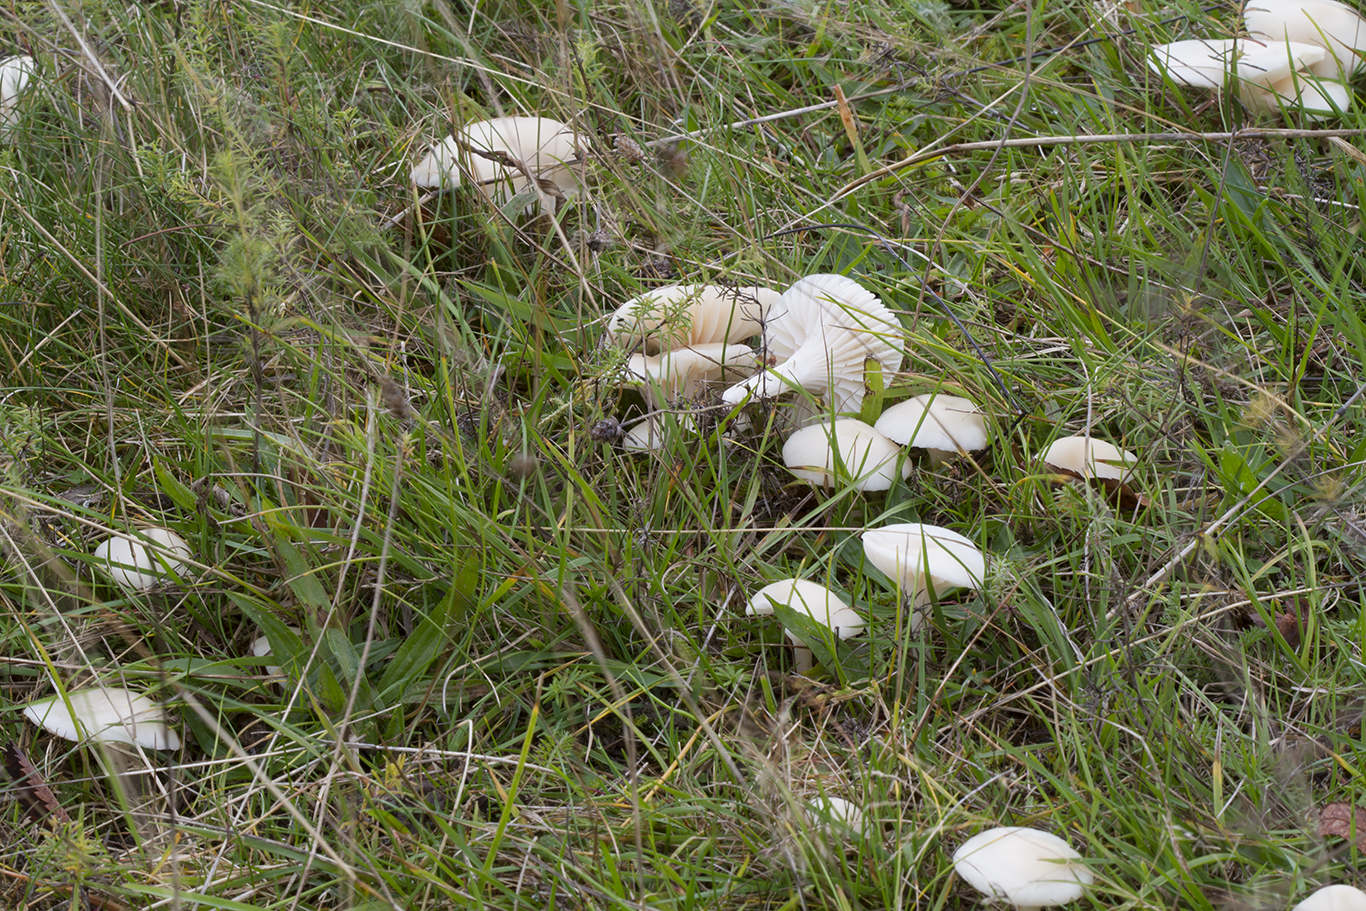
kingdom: Fungi
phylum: Basidiomycota
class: Agaricomycetes
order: Agaricales
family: Hygrophoraceae
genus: Cuphophyllus
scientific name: Cuphophyllus virgineus
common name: snehvid vokshat
